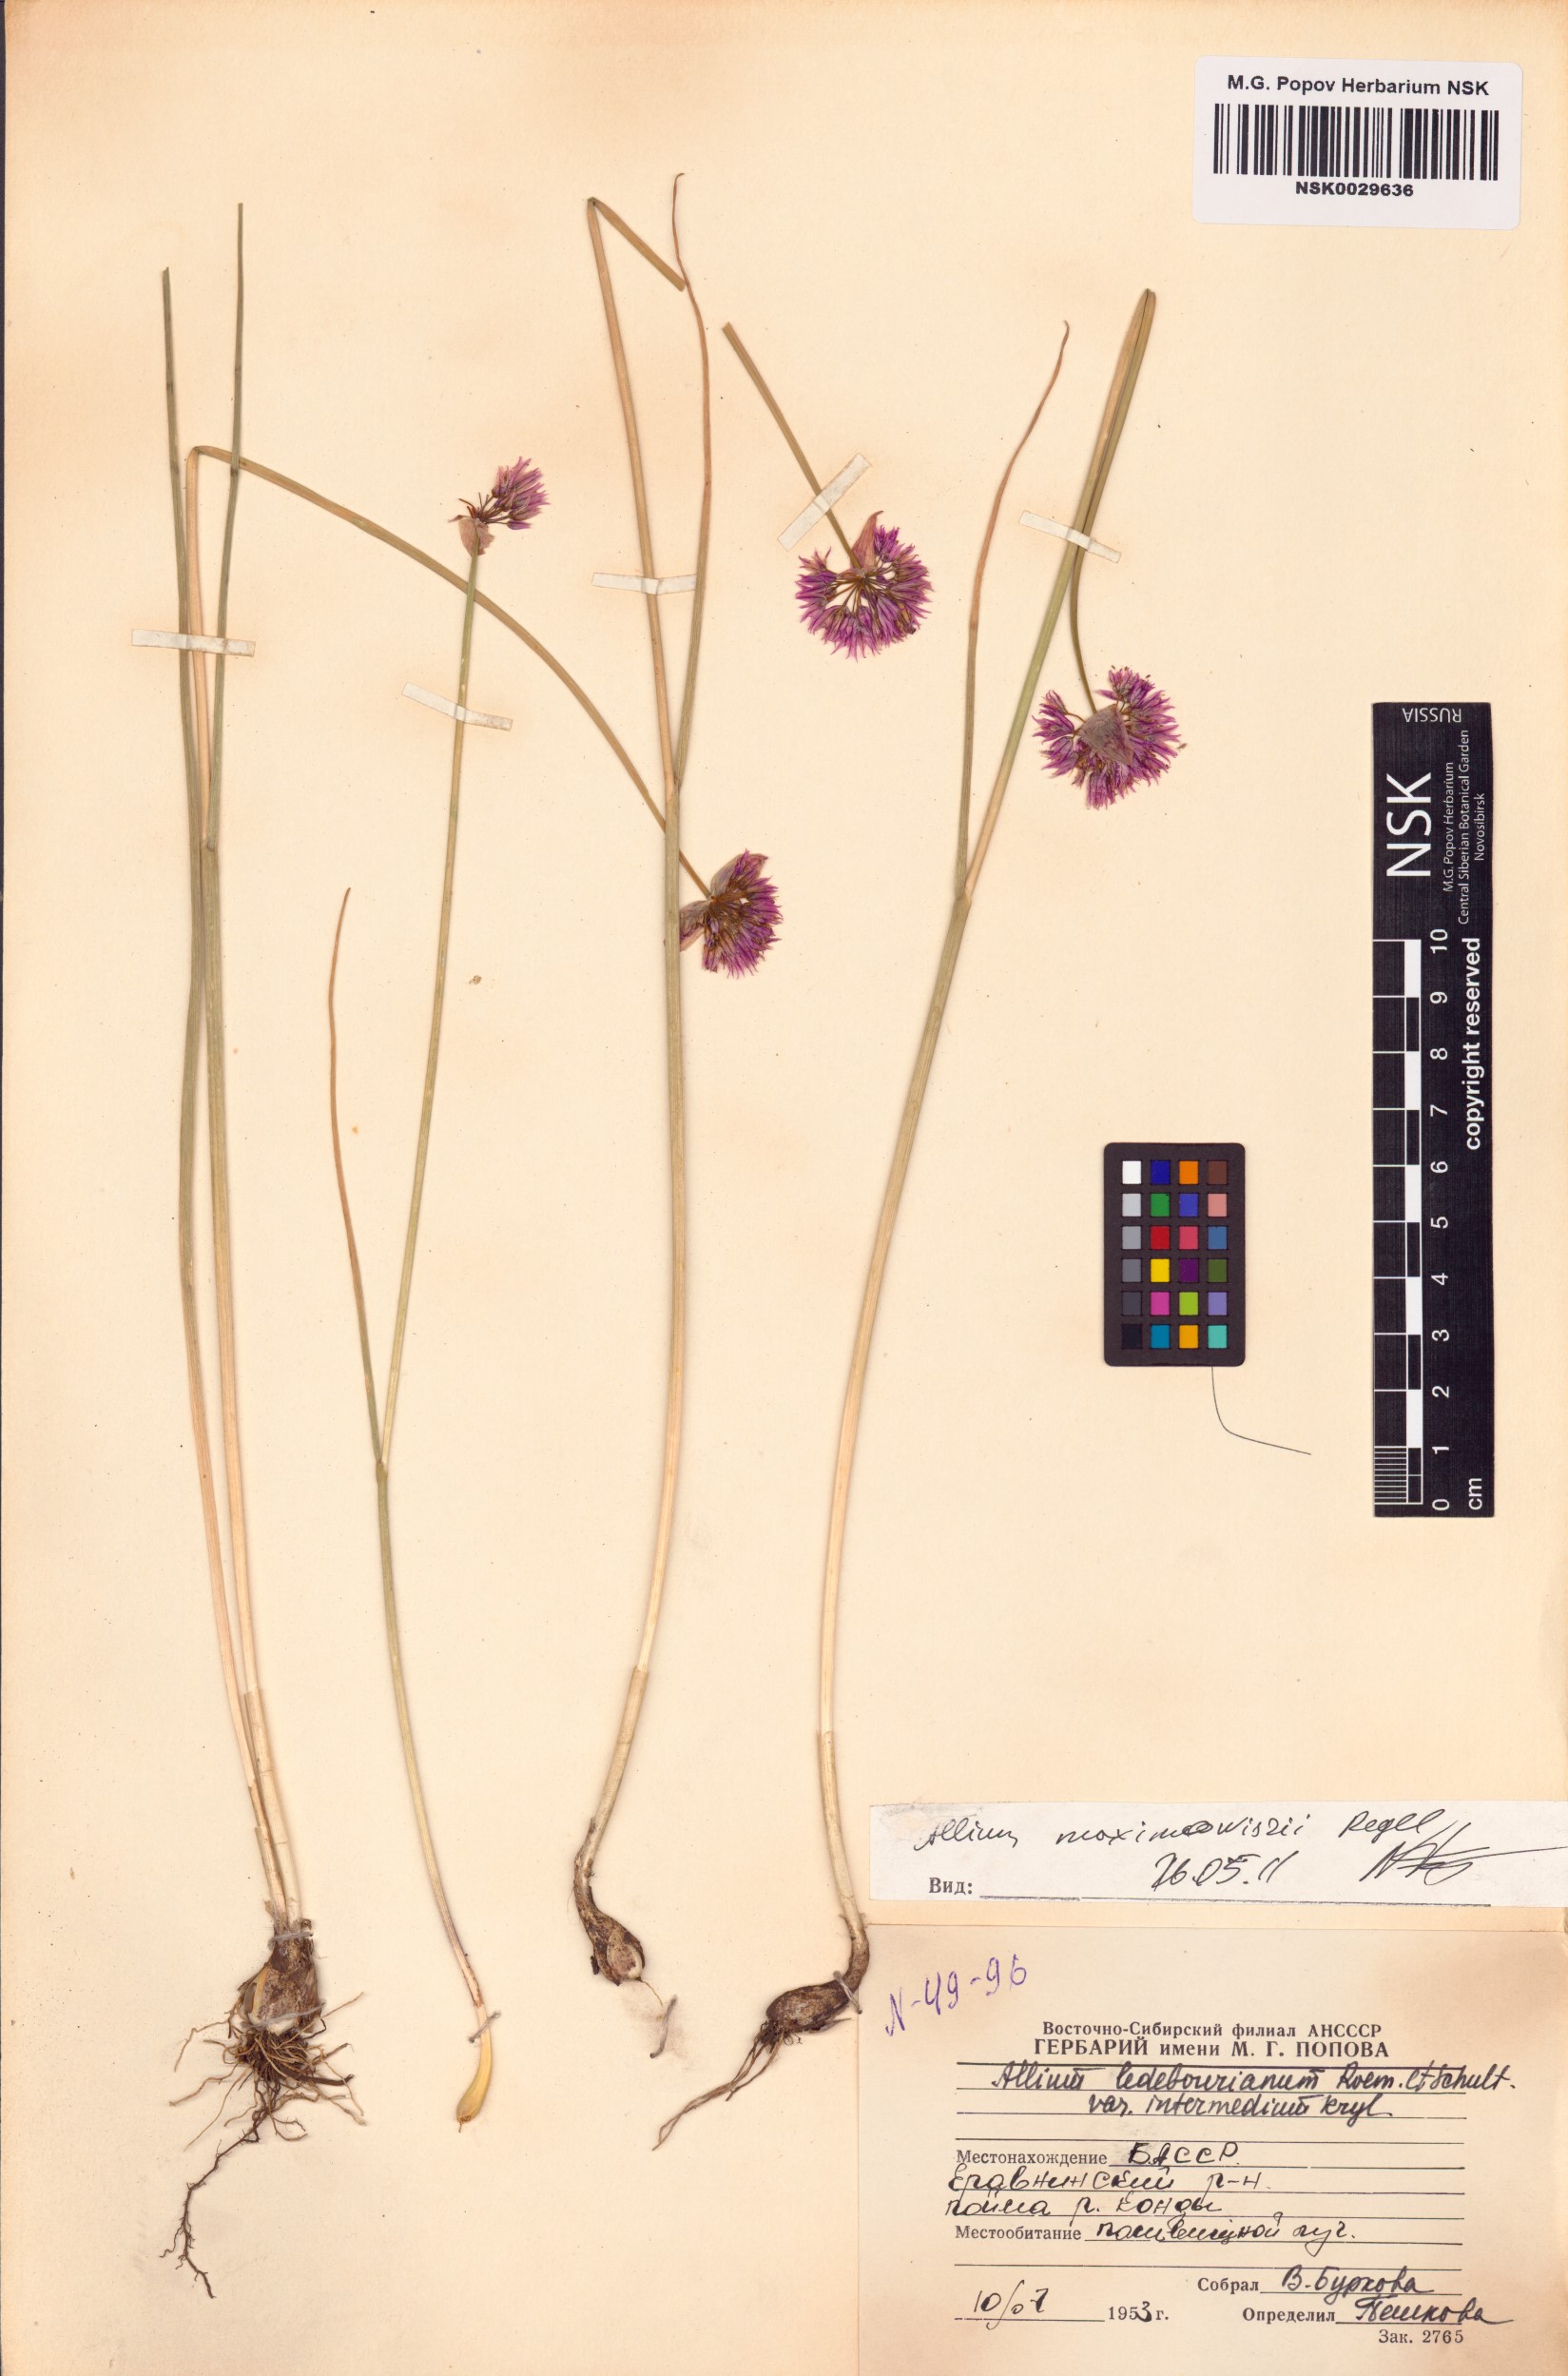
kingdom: Plantae
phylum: Tracheophyta
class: Liliopsida
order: Asparagales
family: Amaryllidaceae
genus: Allium
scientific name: Allium maximowiczii
